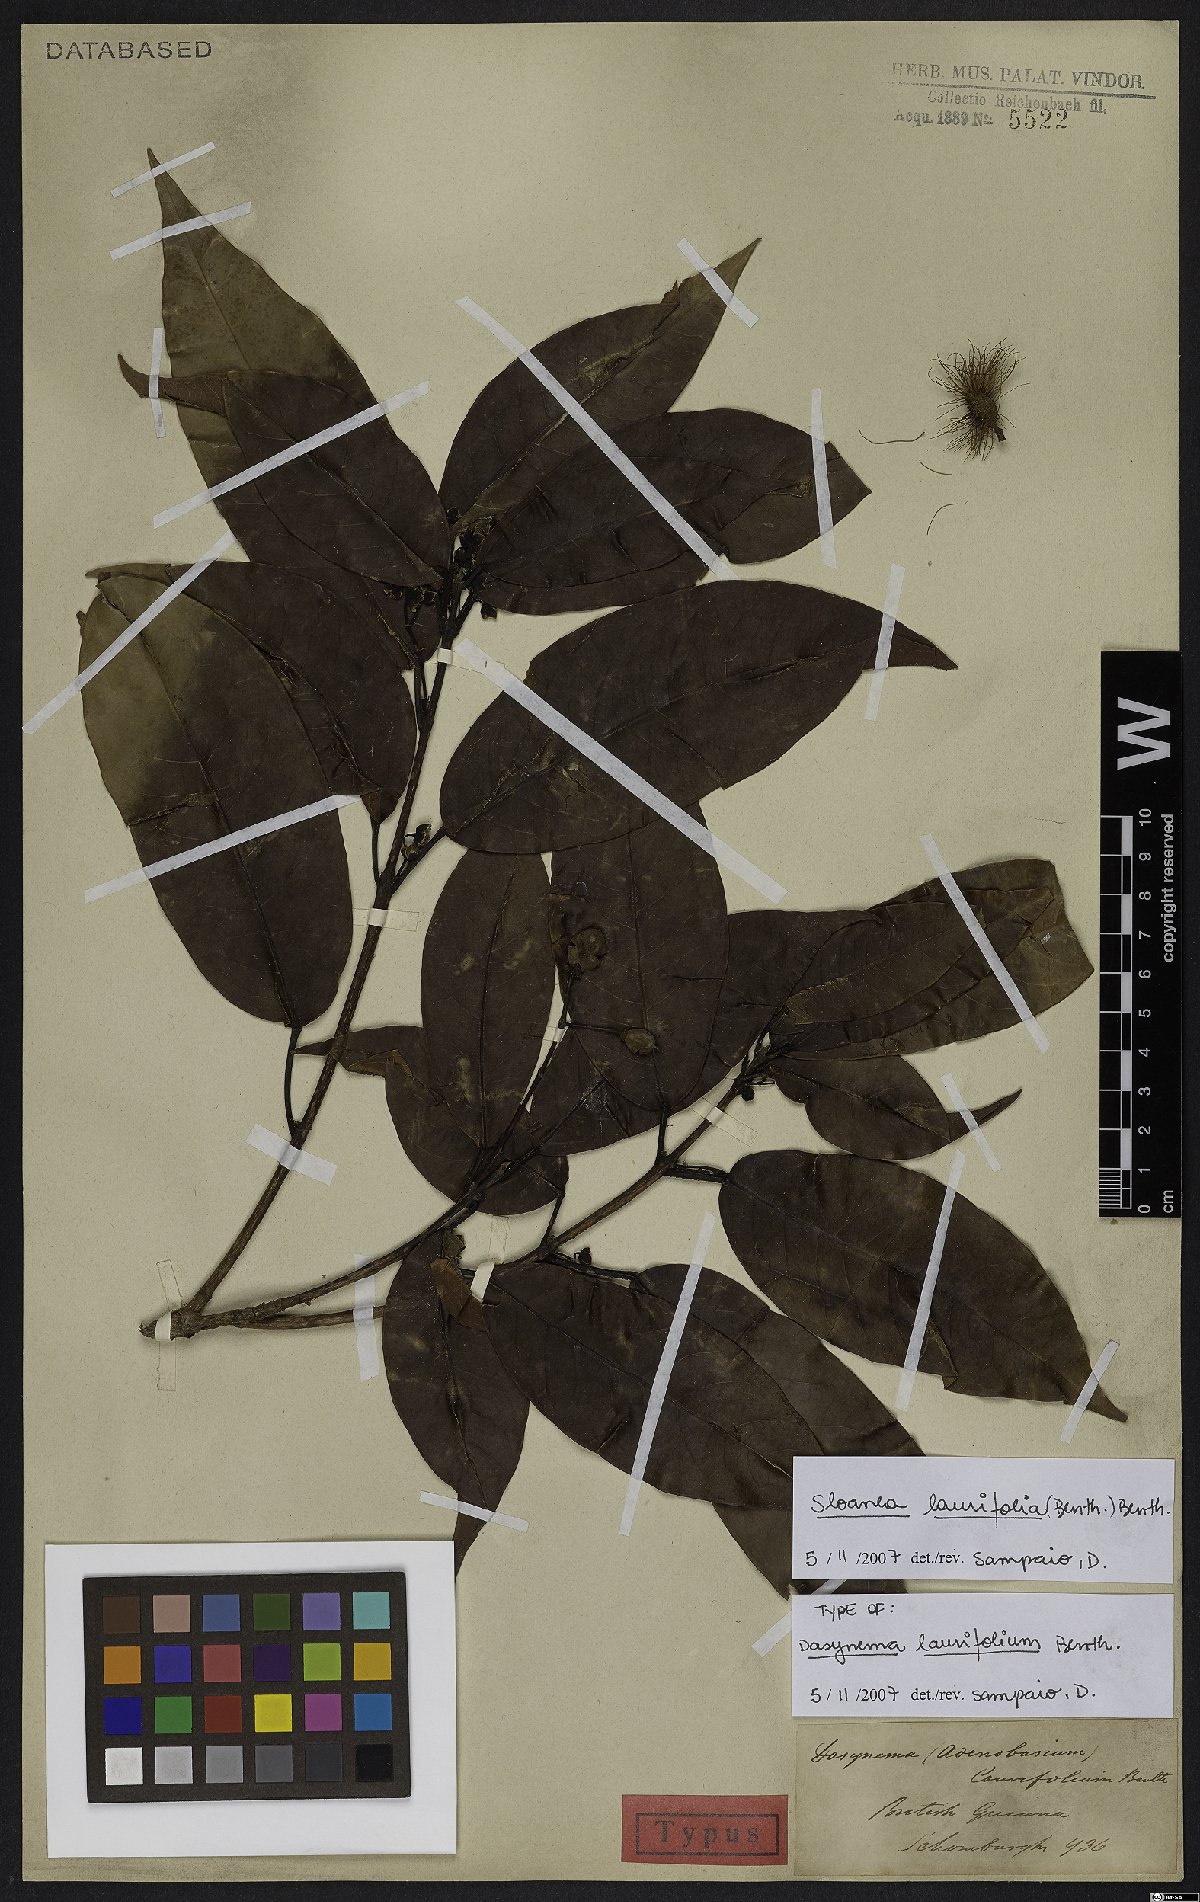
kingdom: Plantae
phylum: Tracheophyta
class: Magnoliopsida
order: Oxalidales
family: Elaeocarpaceae
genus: Sloanea
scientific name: Sloanea laurifolia
